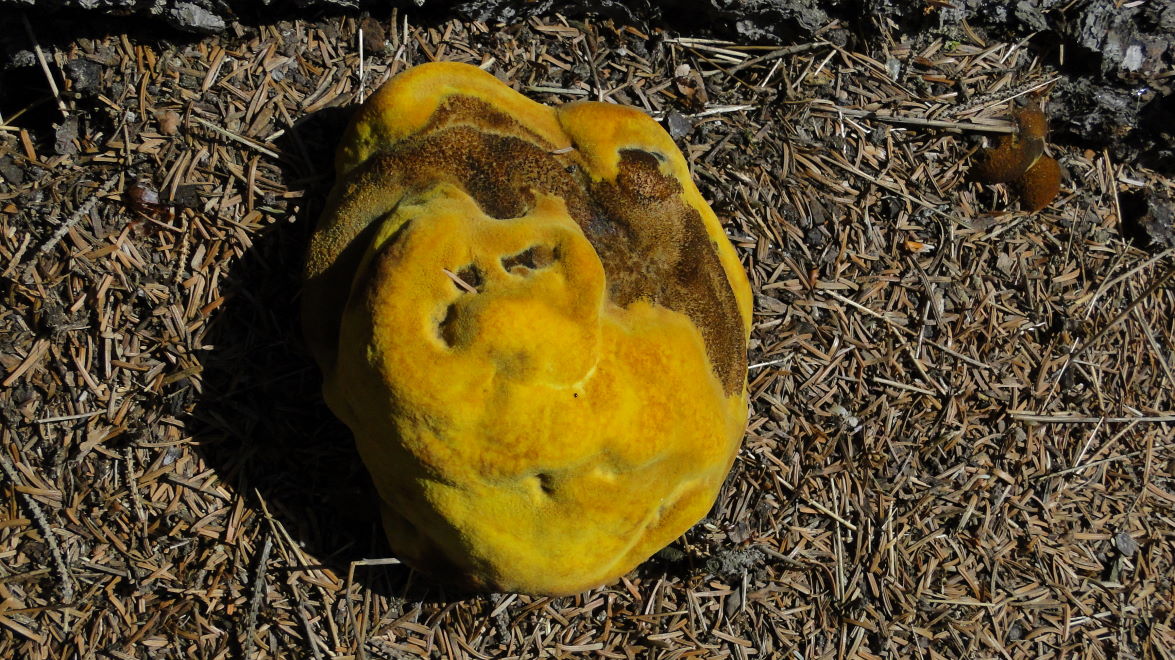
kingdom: Fungi
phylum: Basidiomycota
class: Agaricomycetes
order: Polyporales
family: Laetiporaceae
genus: Phaeolus
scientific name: Phaeolus schweinitzii
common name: brunporesvamp
